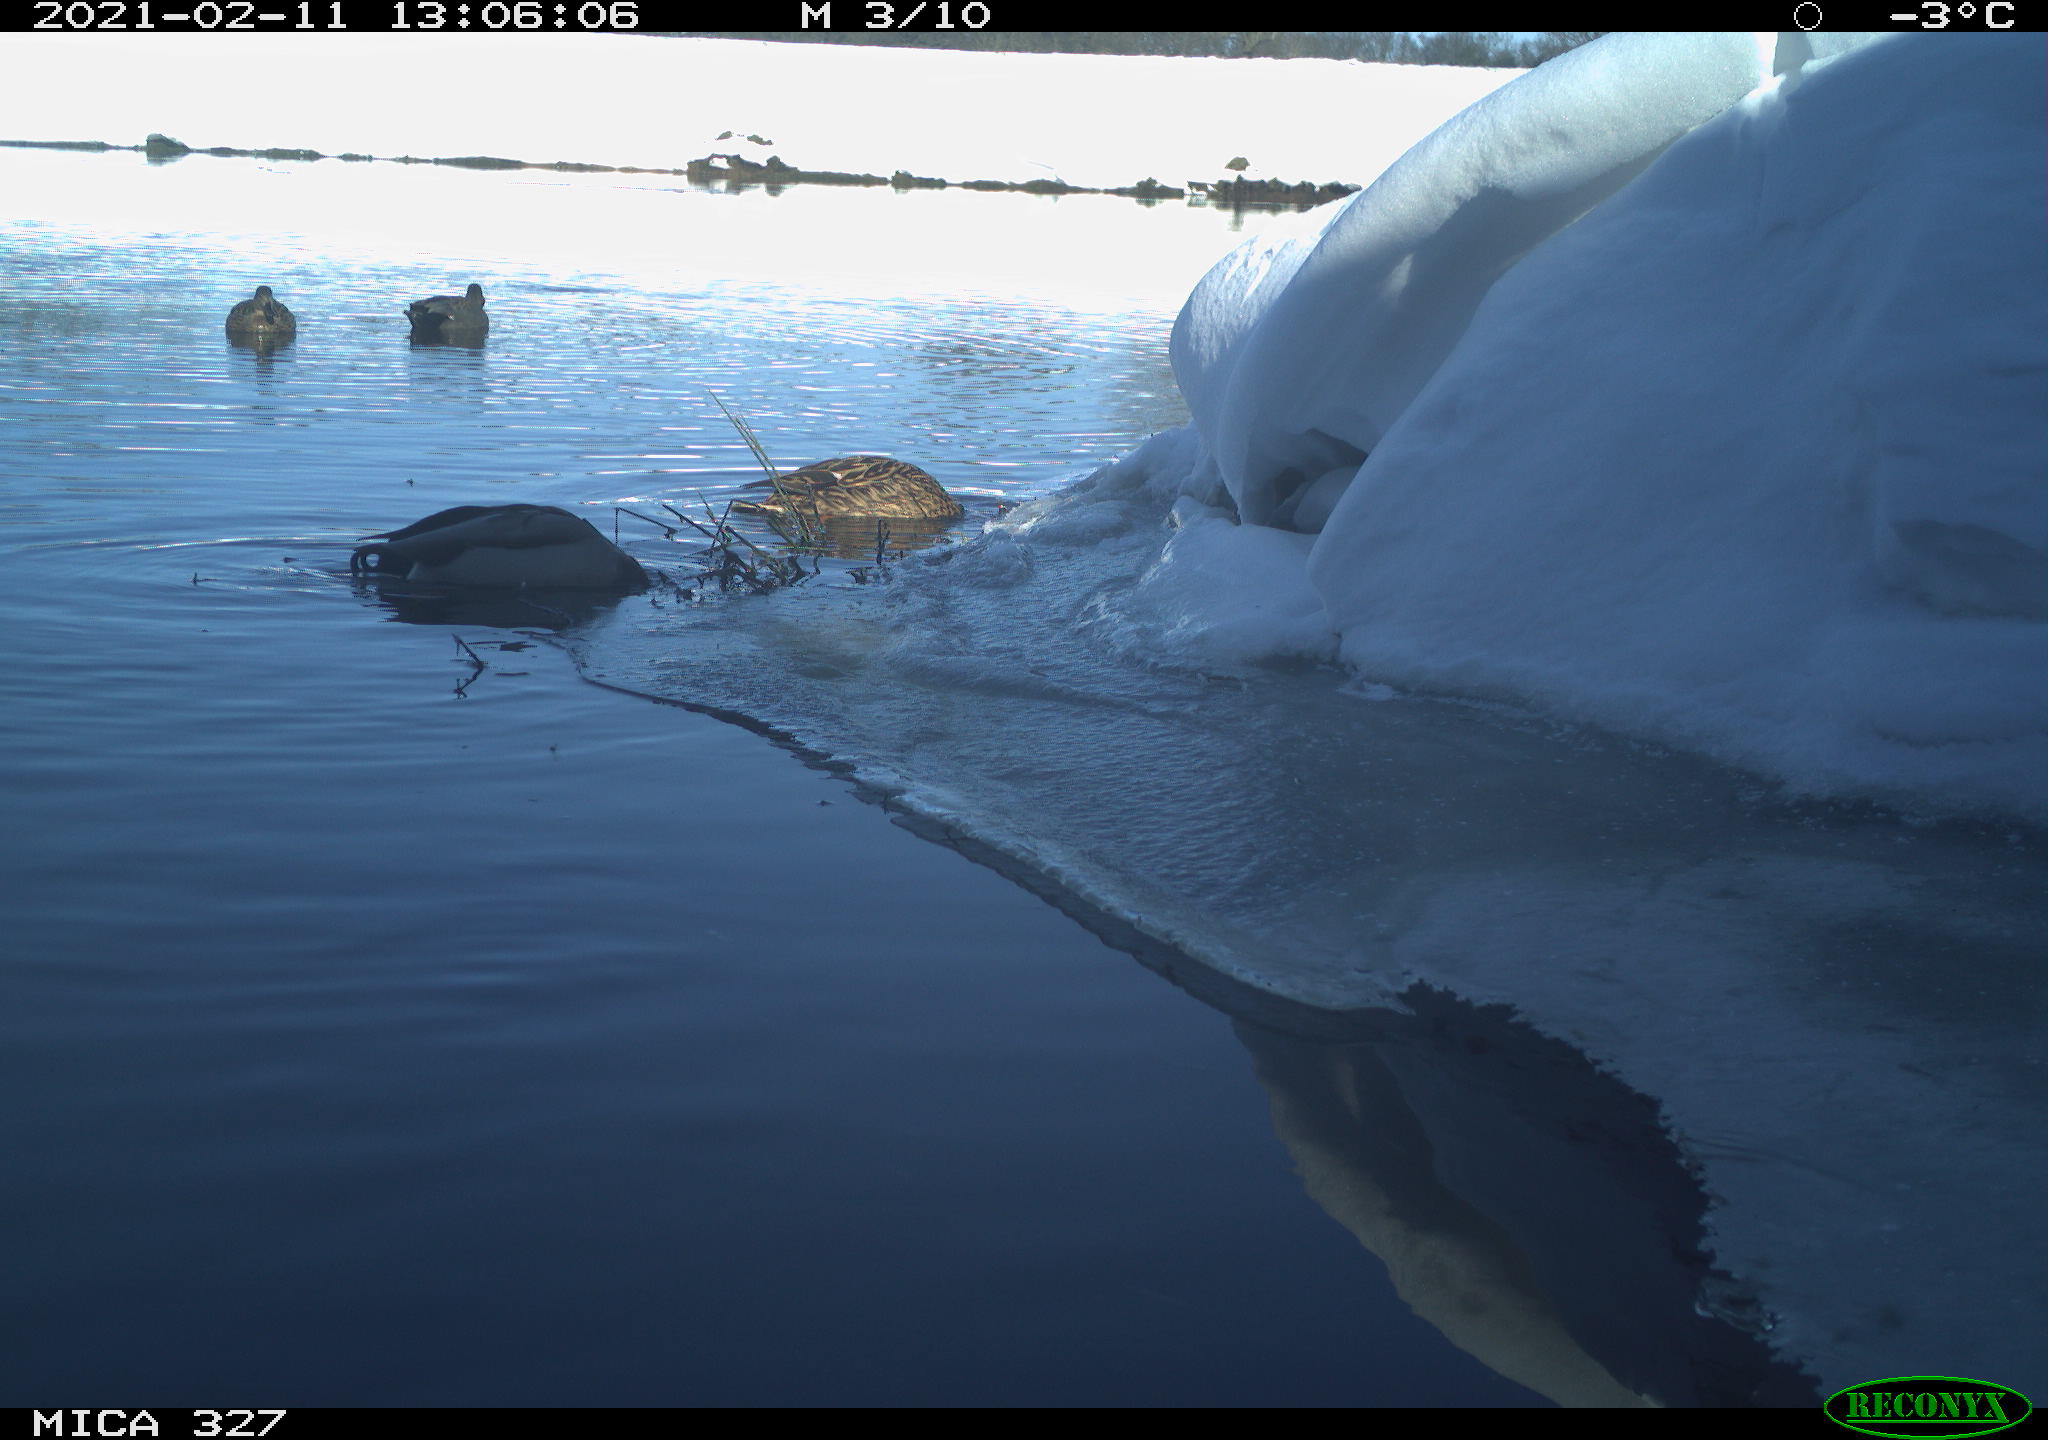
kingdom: Animalia
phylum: Chordata
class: Aves
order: Anseriformes
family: Anatidae
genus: Anas
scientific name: Anas platyrhynchos
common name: Mallard
